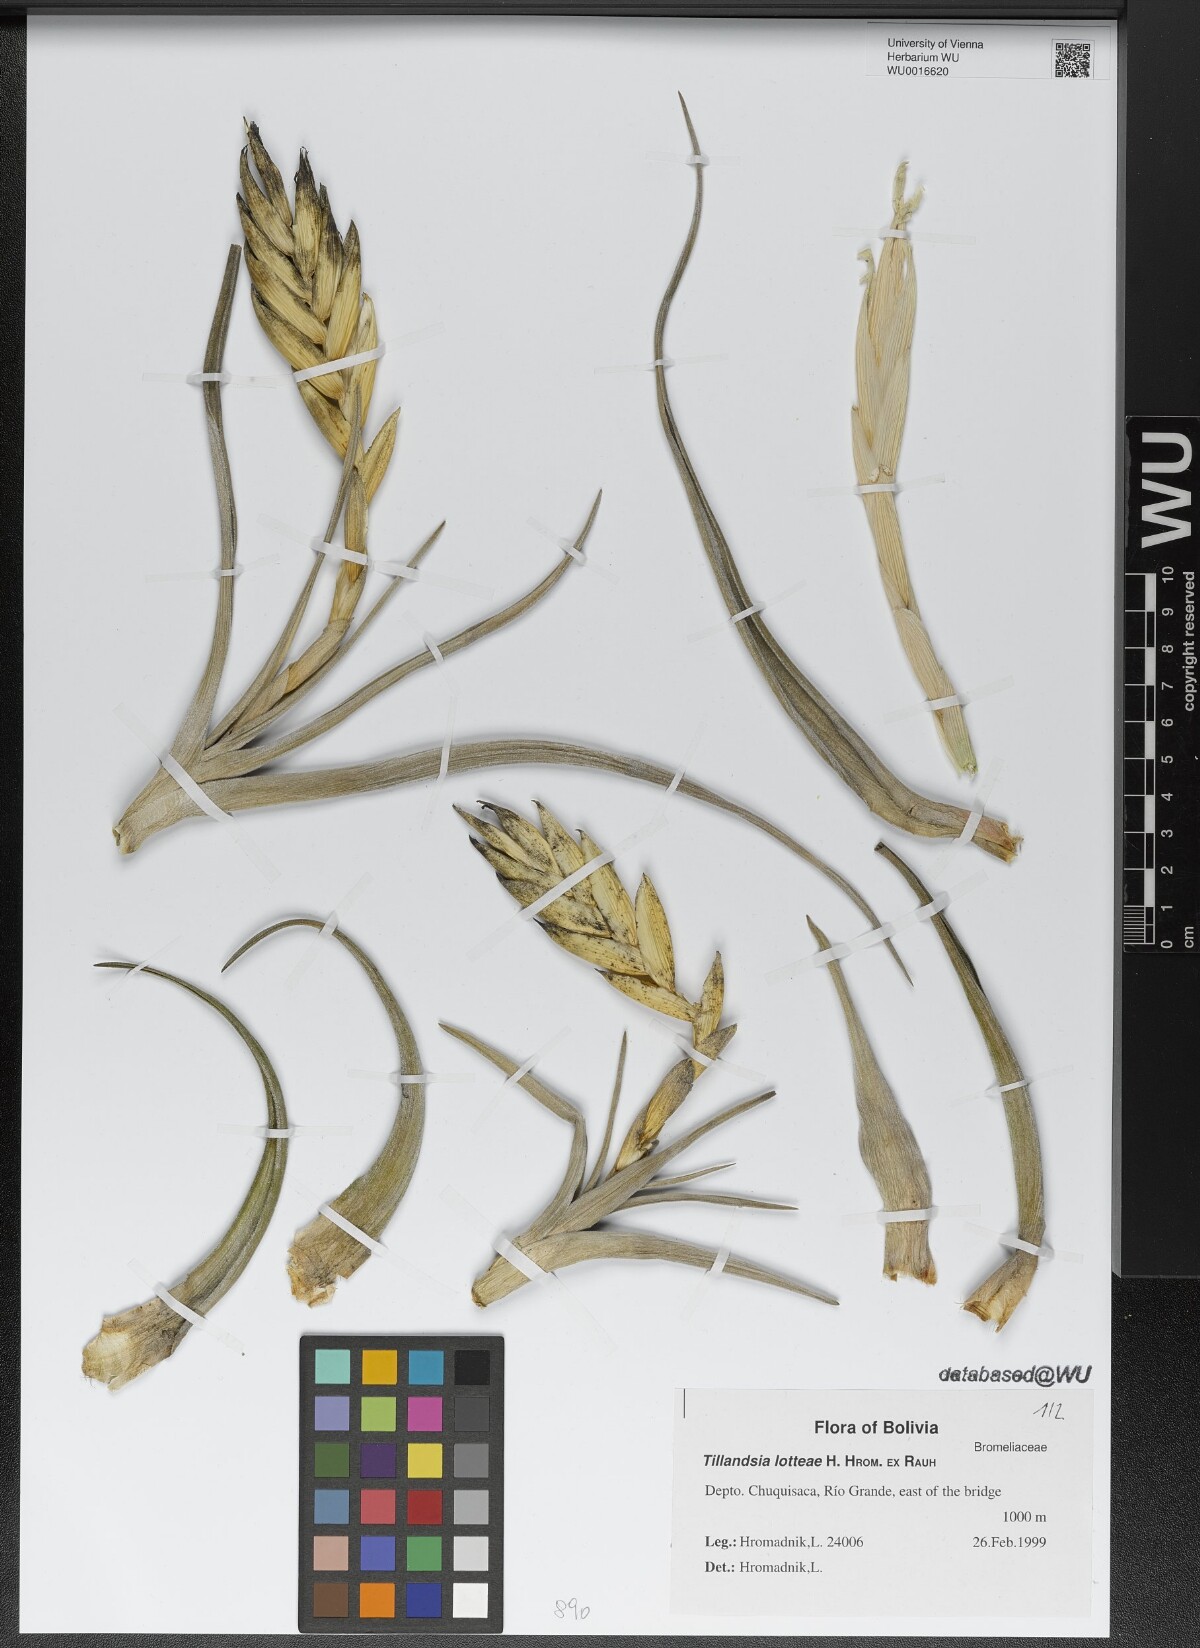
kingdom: Plantae
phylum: Tracheophyta
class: Liliopsida
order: Poales
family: Bromeliaceae
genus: Tillandsia
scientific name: Tillandsia lotteae
